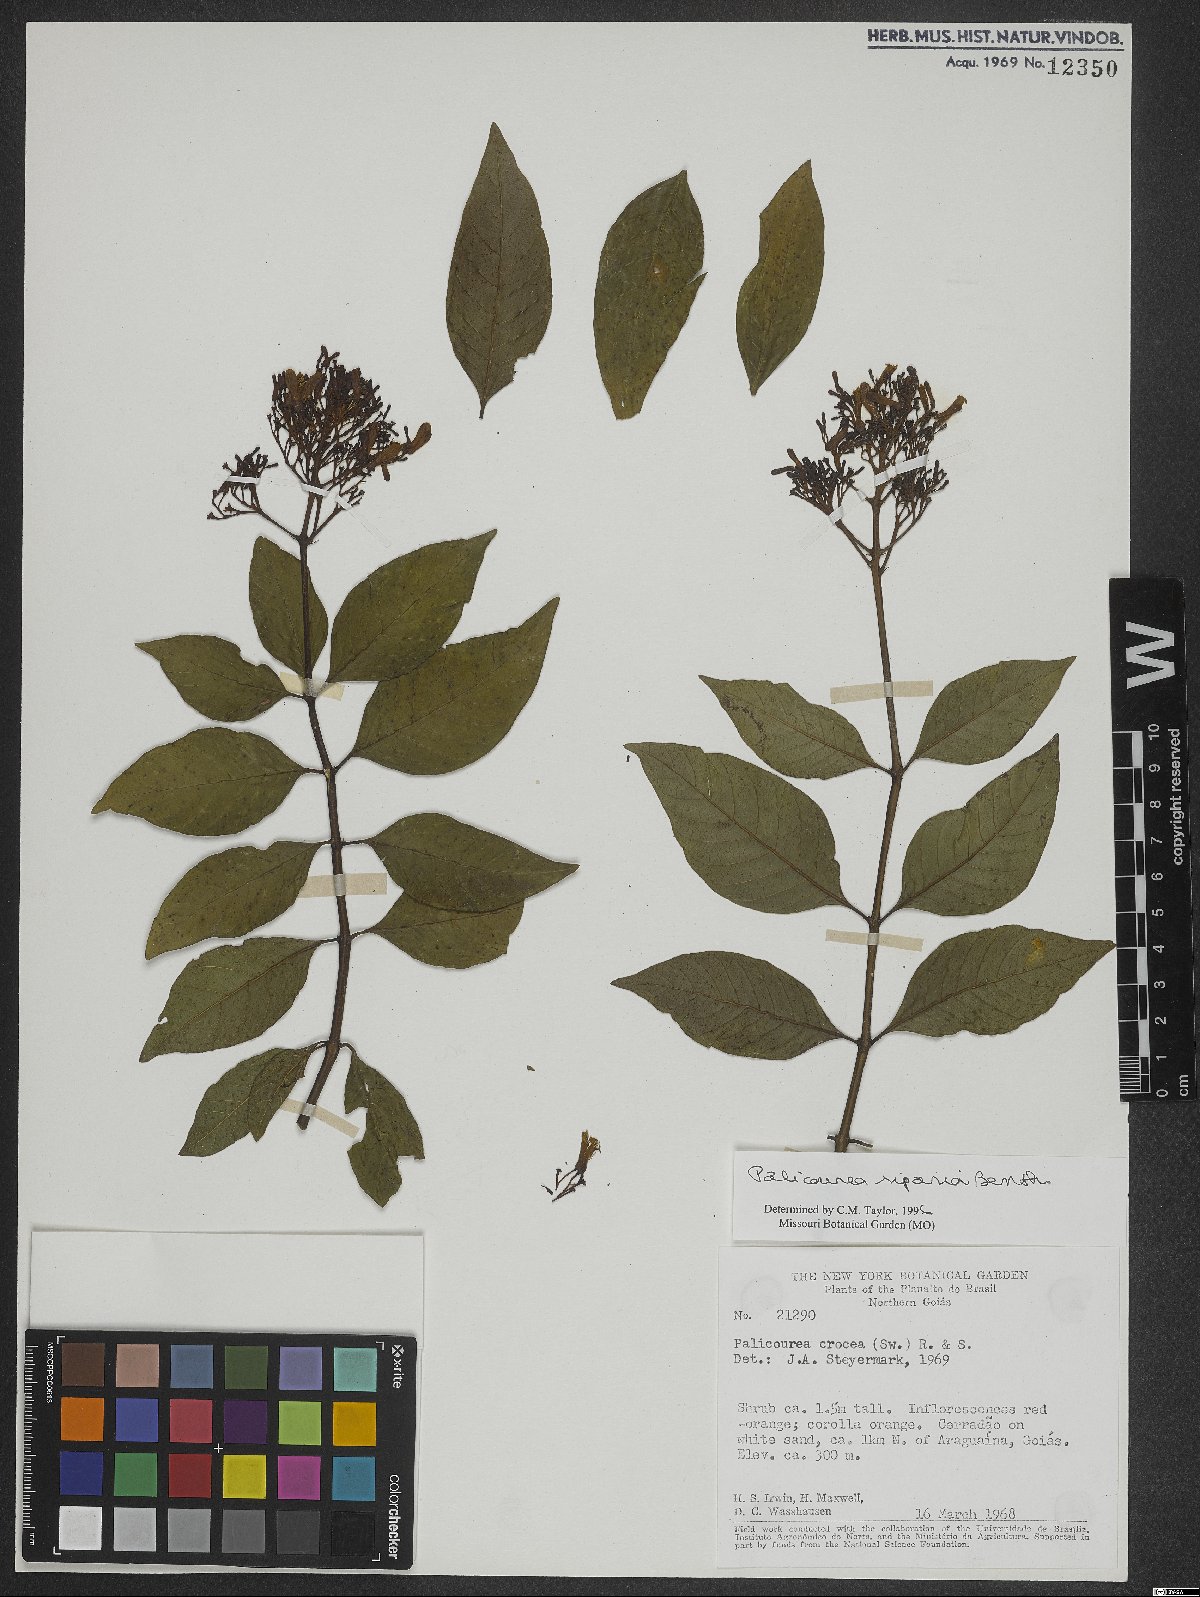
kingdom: Plantae
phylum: Tracheophyta
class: Magnoliopsida
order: Gentianales
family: Rubiaceae
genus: Palicourea
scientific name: Palicourea croceoides
